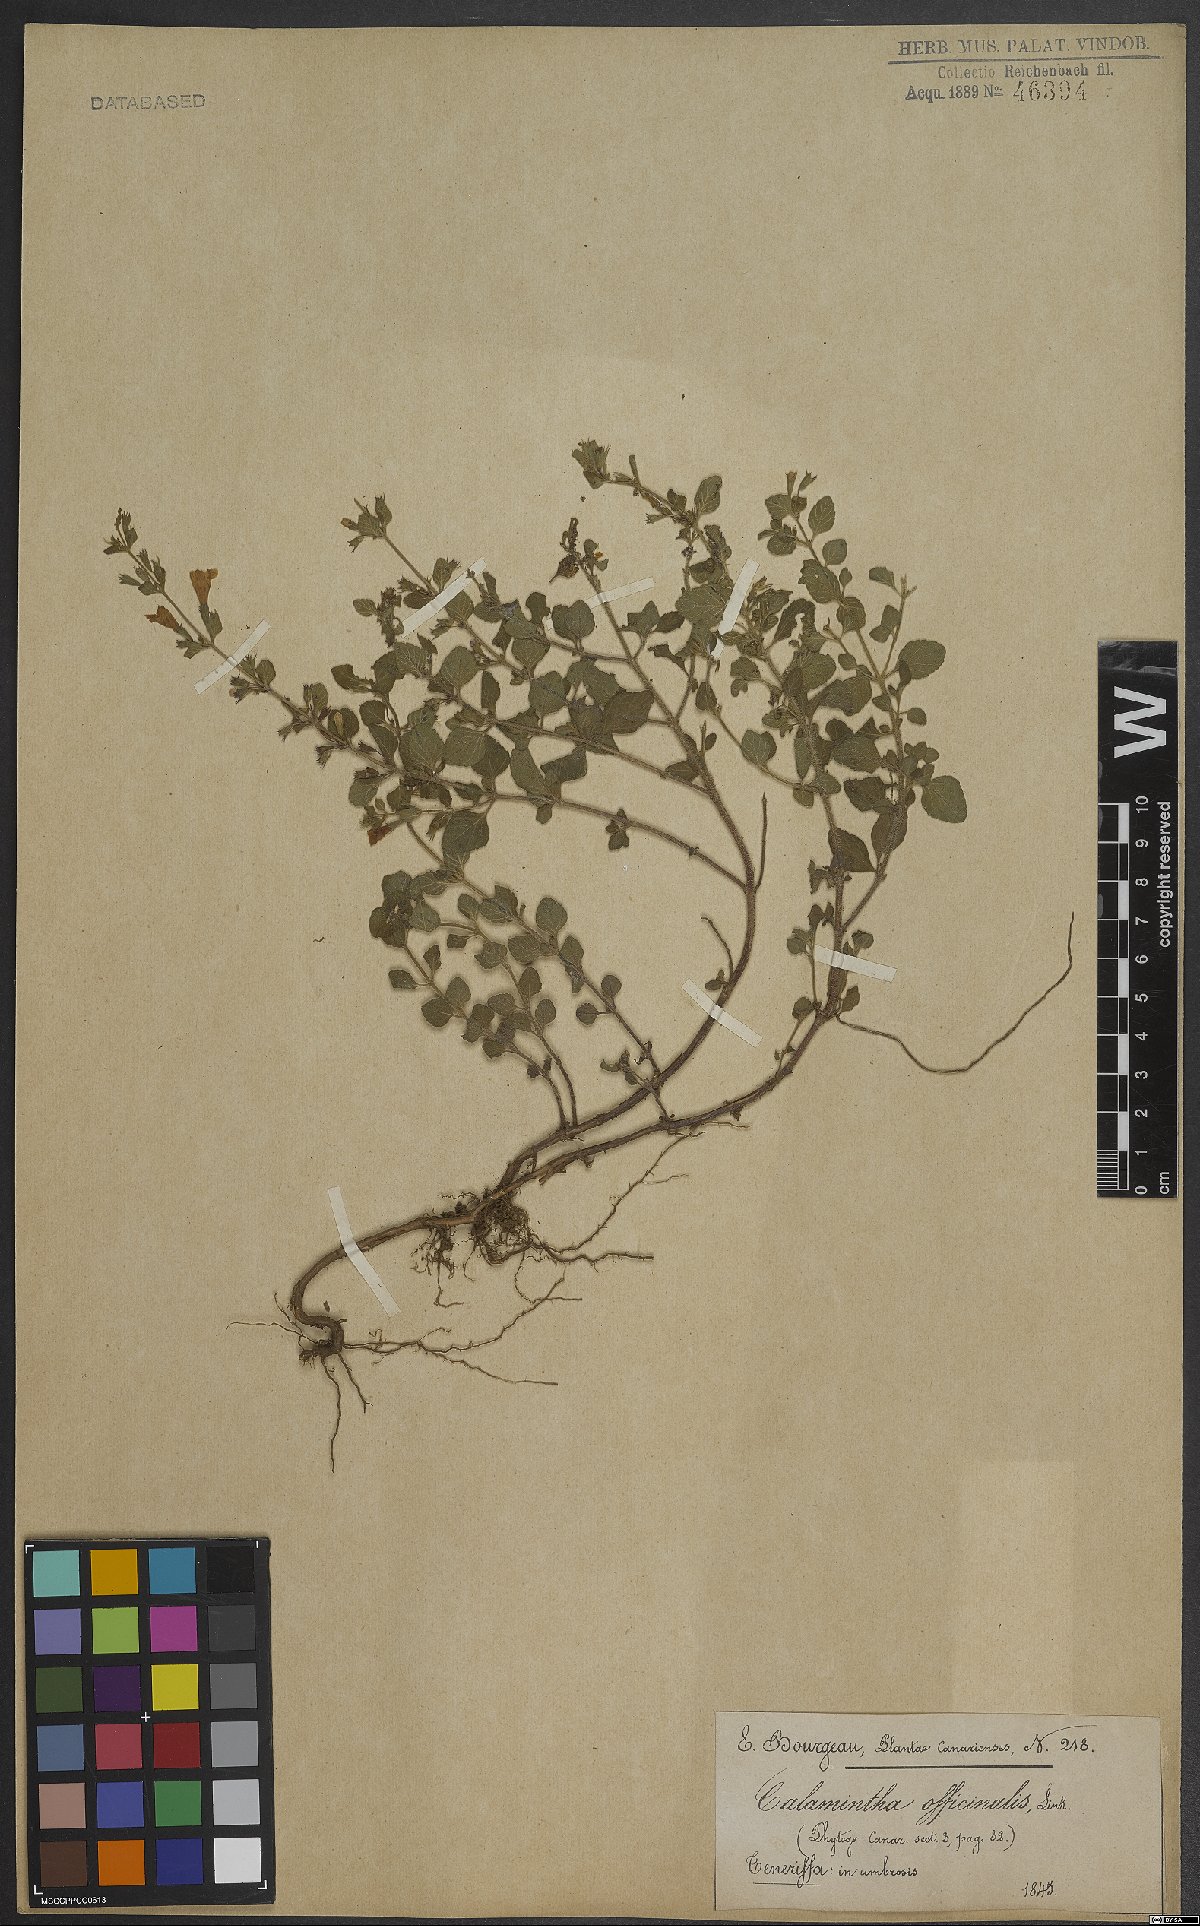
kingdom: Plantae
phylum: Tracheophyta
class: Magnoliopsida
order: Lamiales
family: Lamiaceae
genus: Clinopodium
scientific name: Clinopodium heterotrichum
